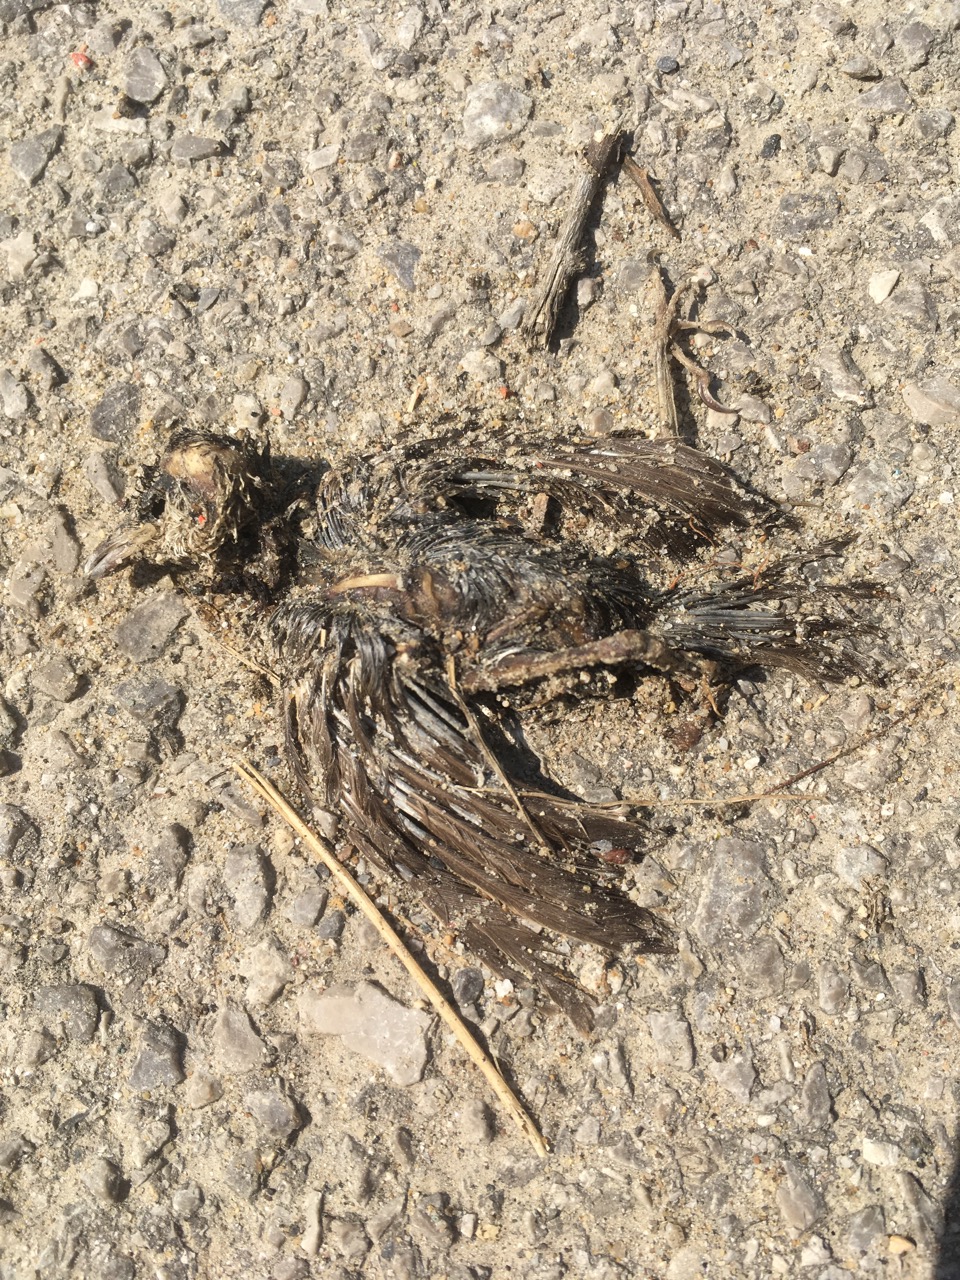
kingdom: Animalia
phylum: Chordata
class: Aves
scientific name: Aves
